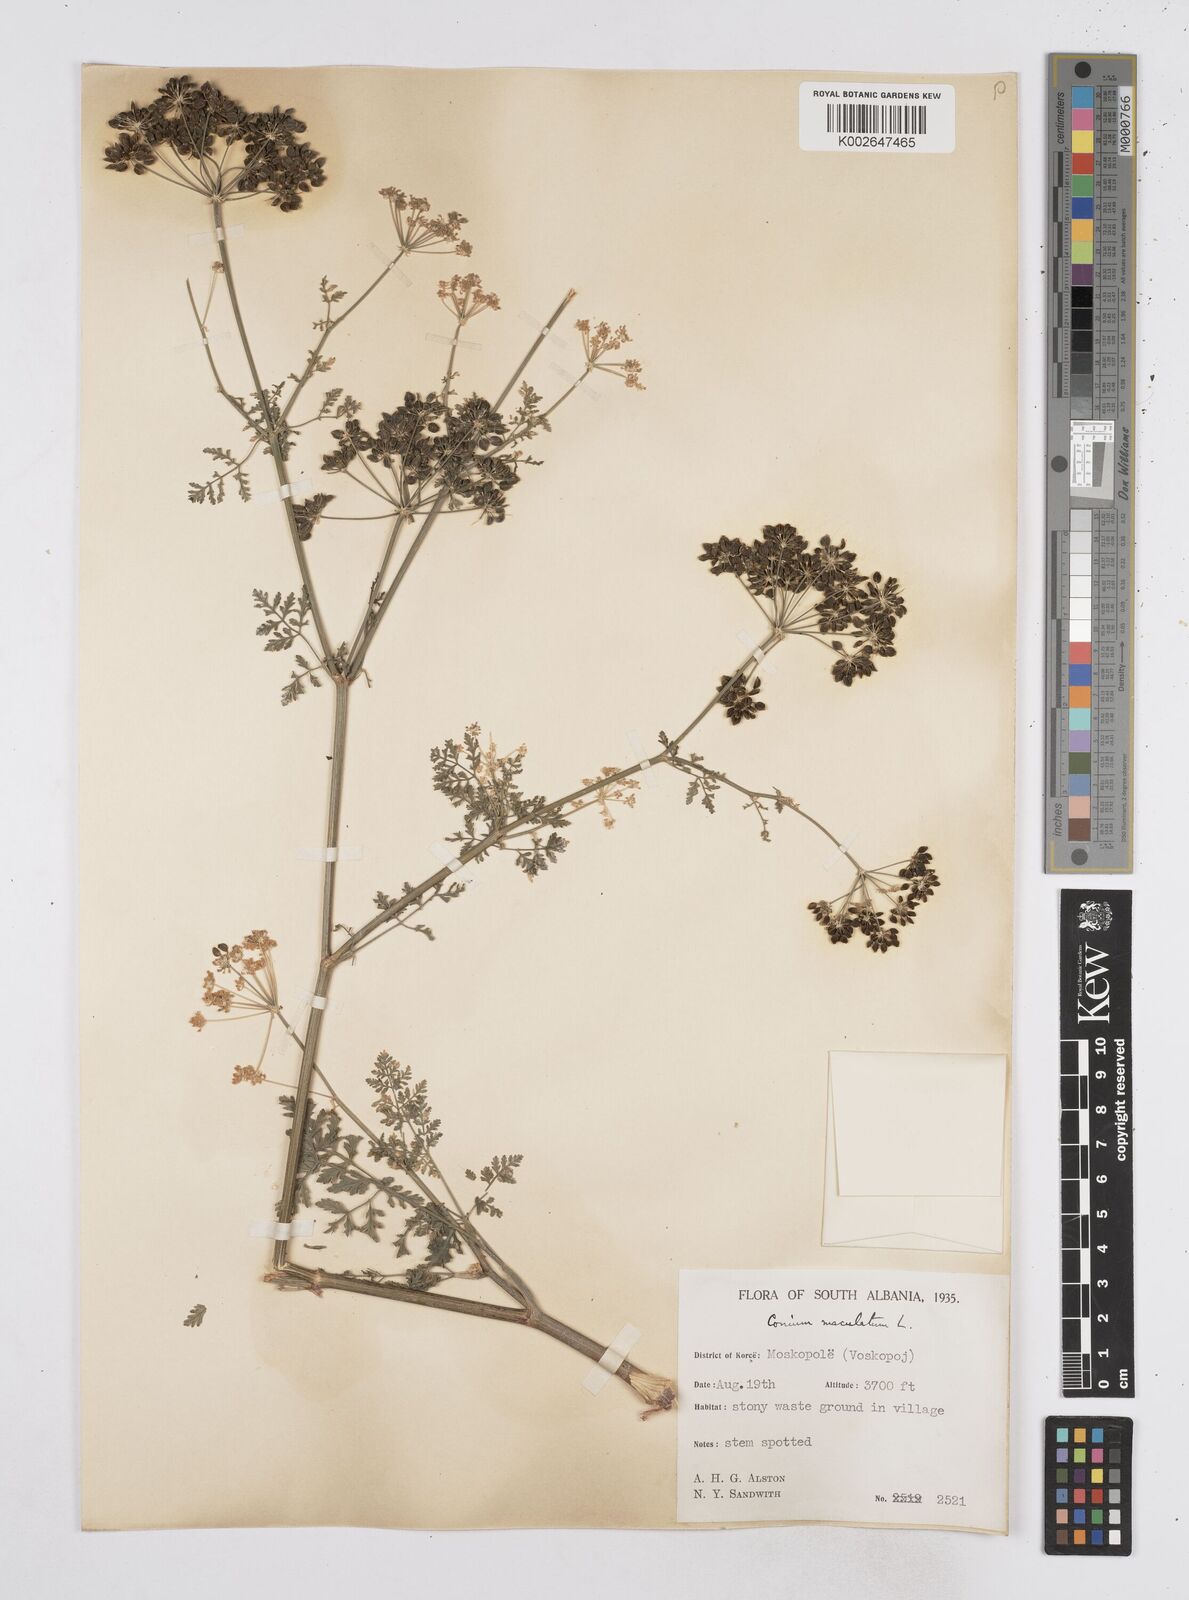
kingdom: Plantae
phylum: Tracheophyta
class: Magnoliopsida
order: Apiales
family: Apiaceae
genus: Conium
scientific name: Conium maculatum
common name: Hemlock
